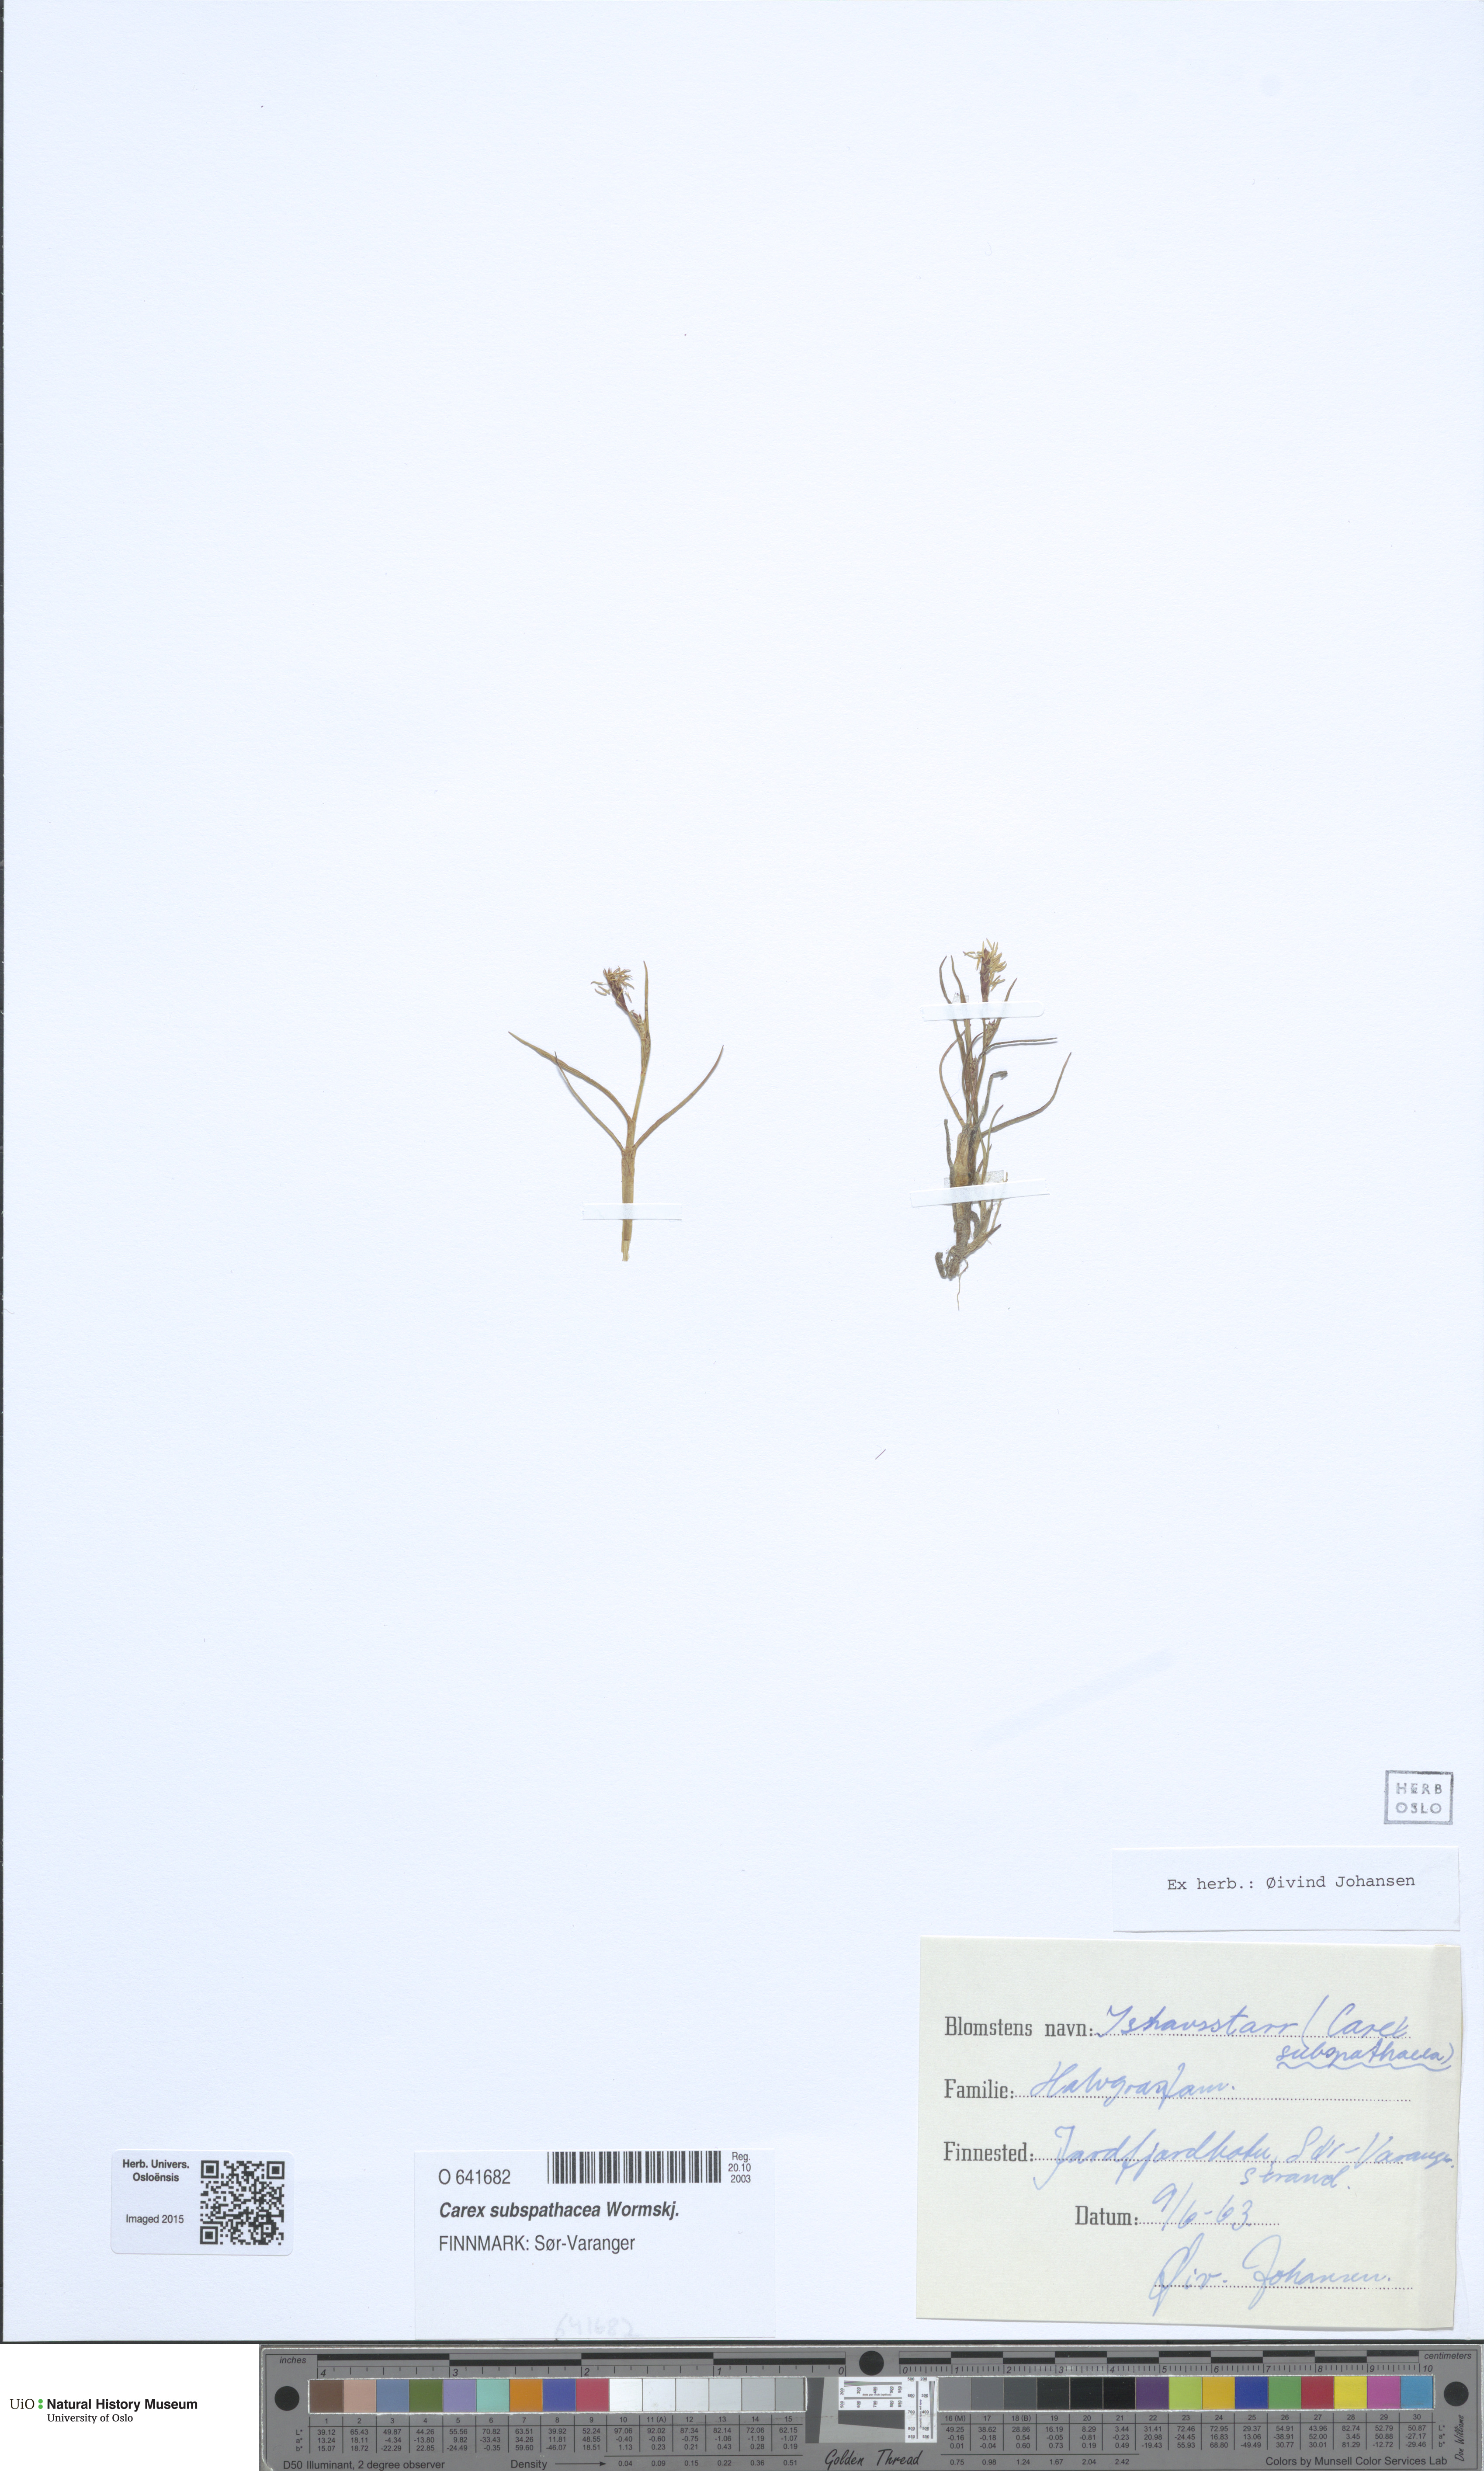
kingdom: Plantae
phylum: Tracheophyta
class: Liliopsida
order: Poales
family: Cyperaceae
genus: Carex
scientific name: Carex subspathacea
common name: Hoppner's sedge
